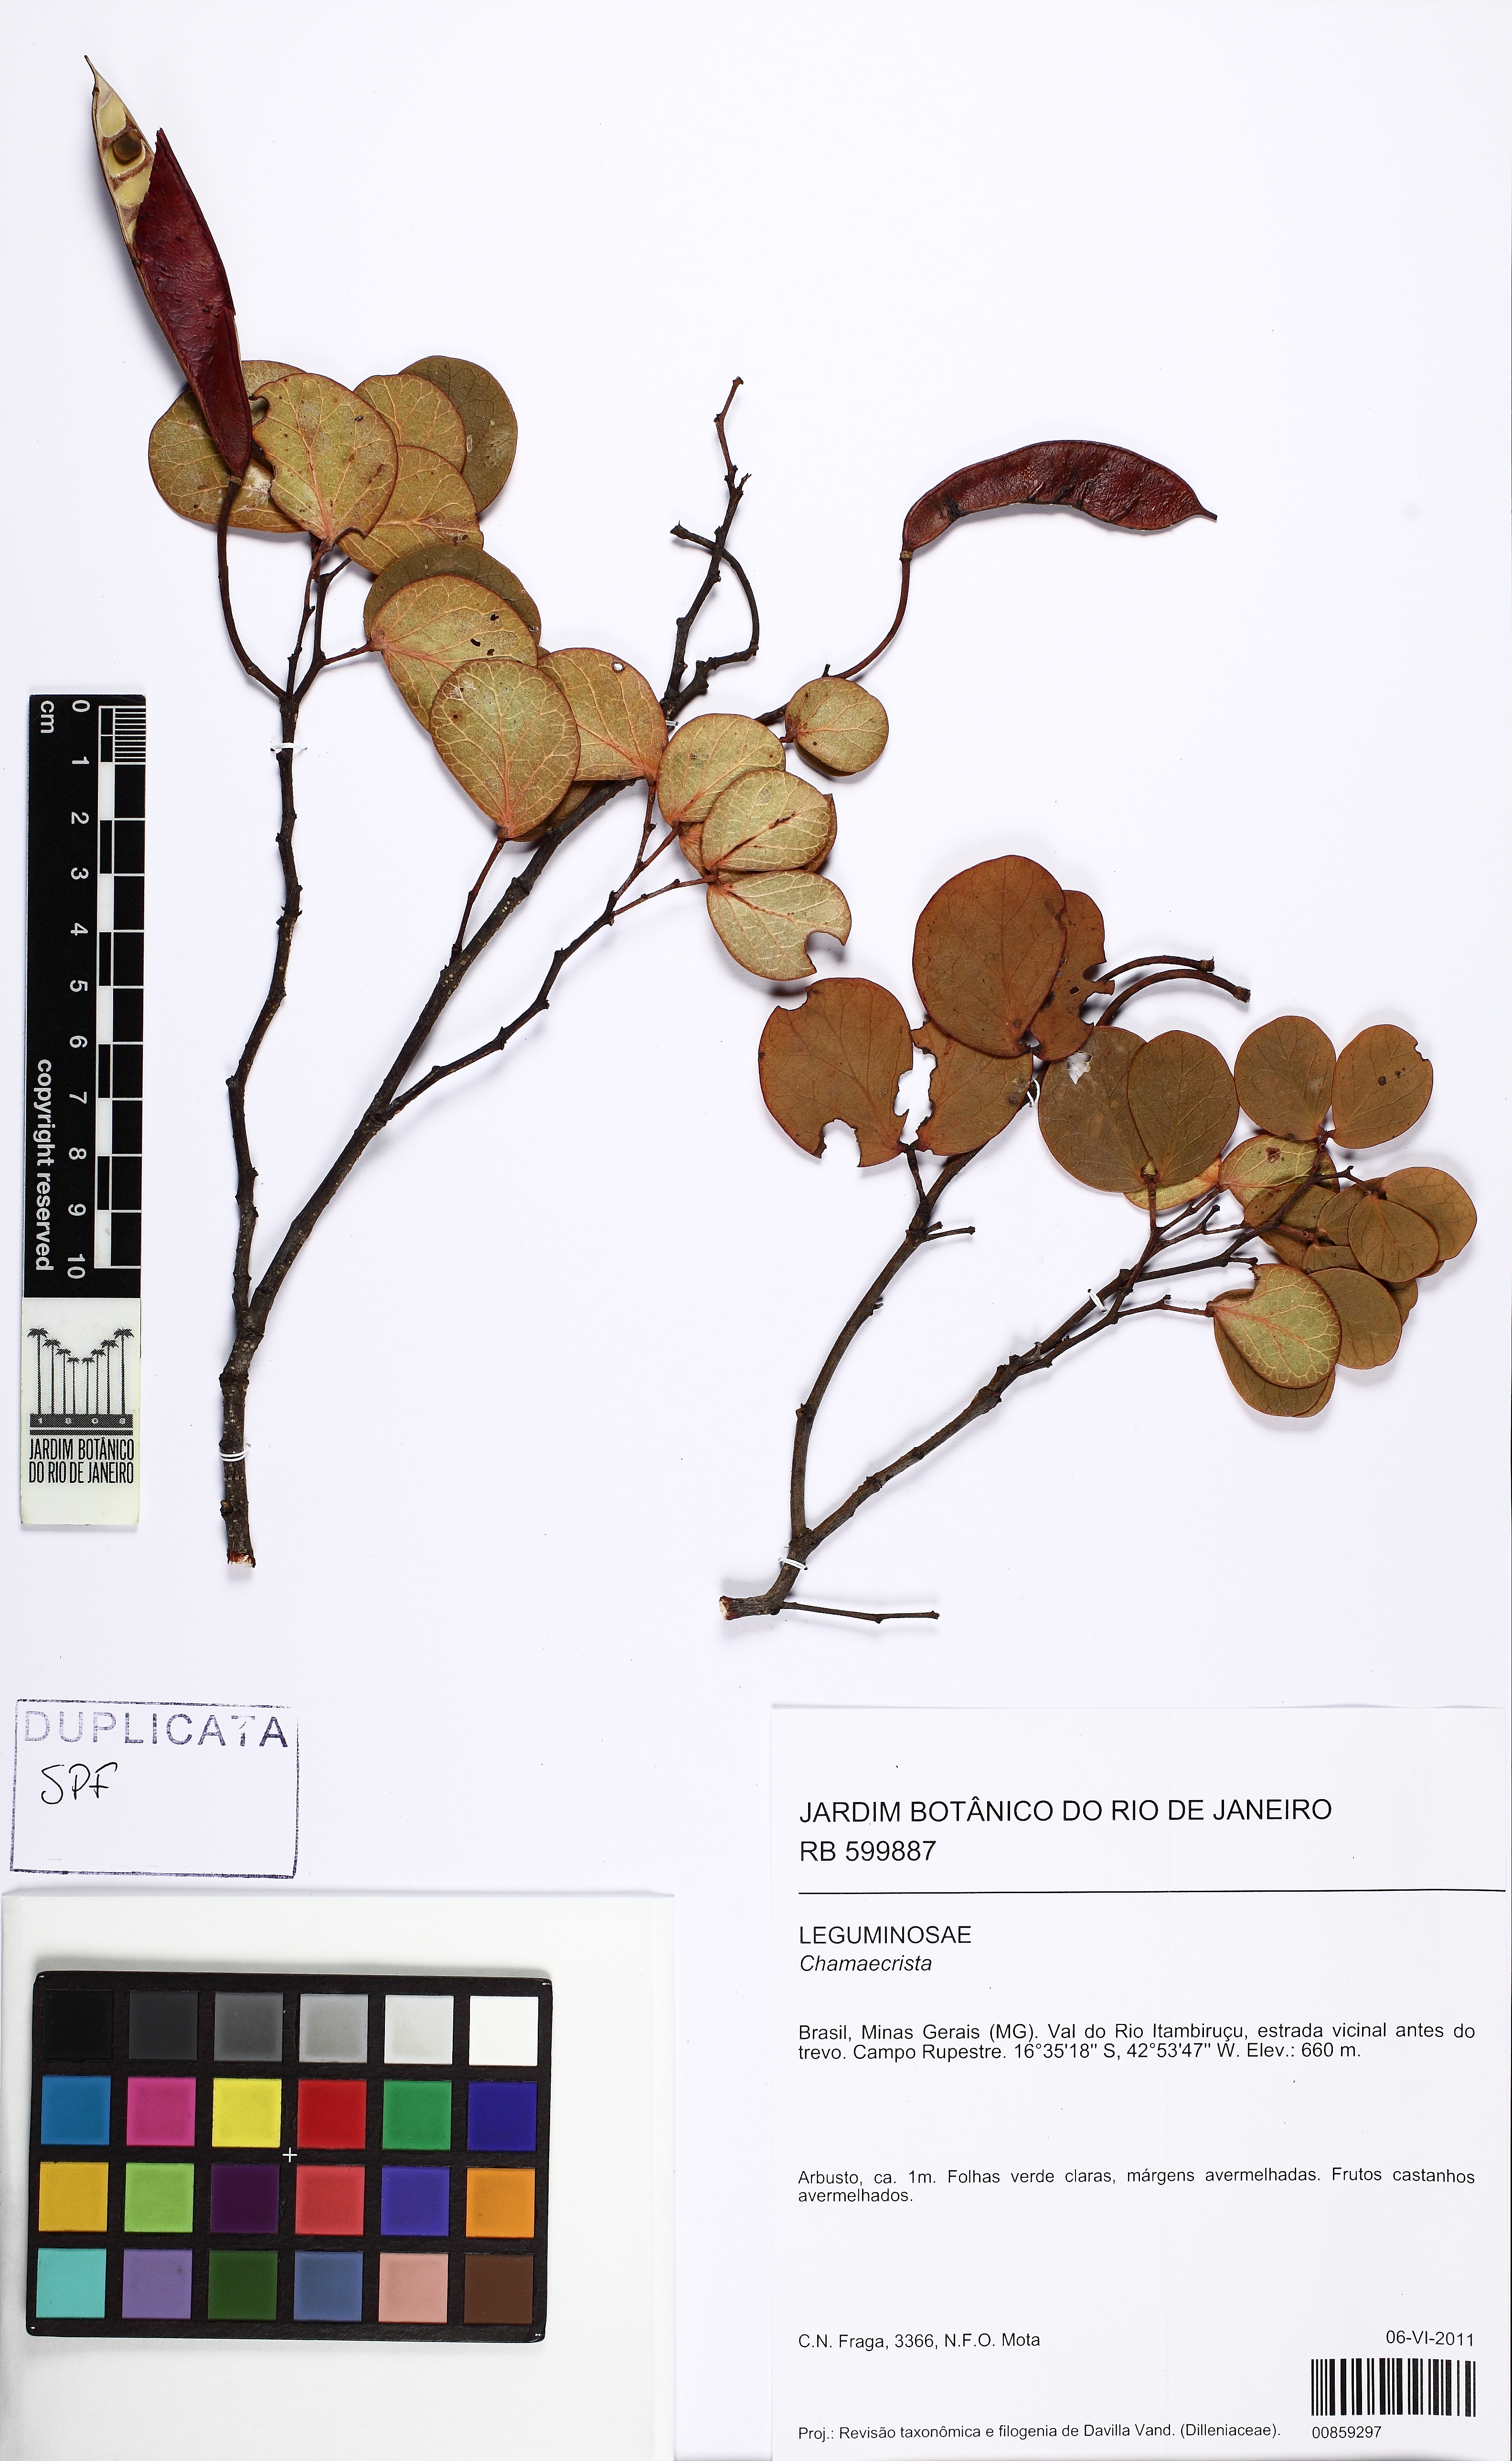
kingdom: Plantae
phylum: Tracheophyta
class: Magnoliopsida
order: Fabales
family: Fabaceae
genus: Chamaecrista
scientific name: Chamaecrista decora
